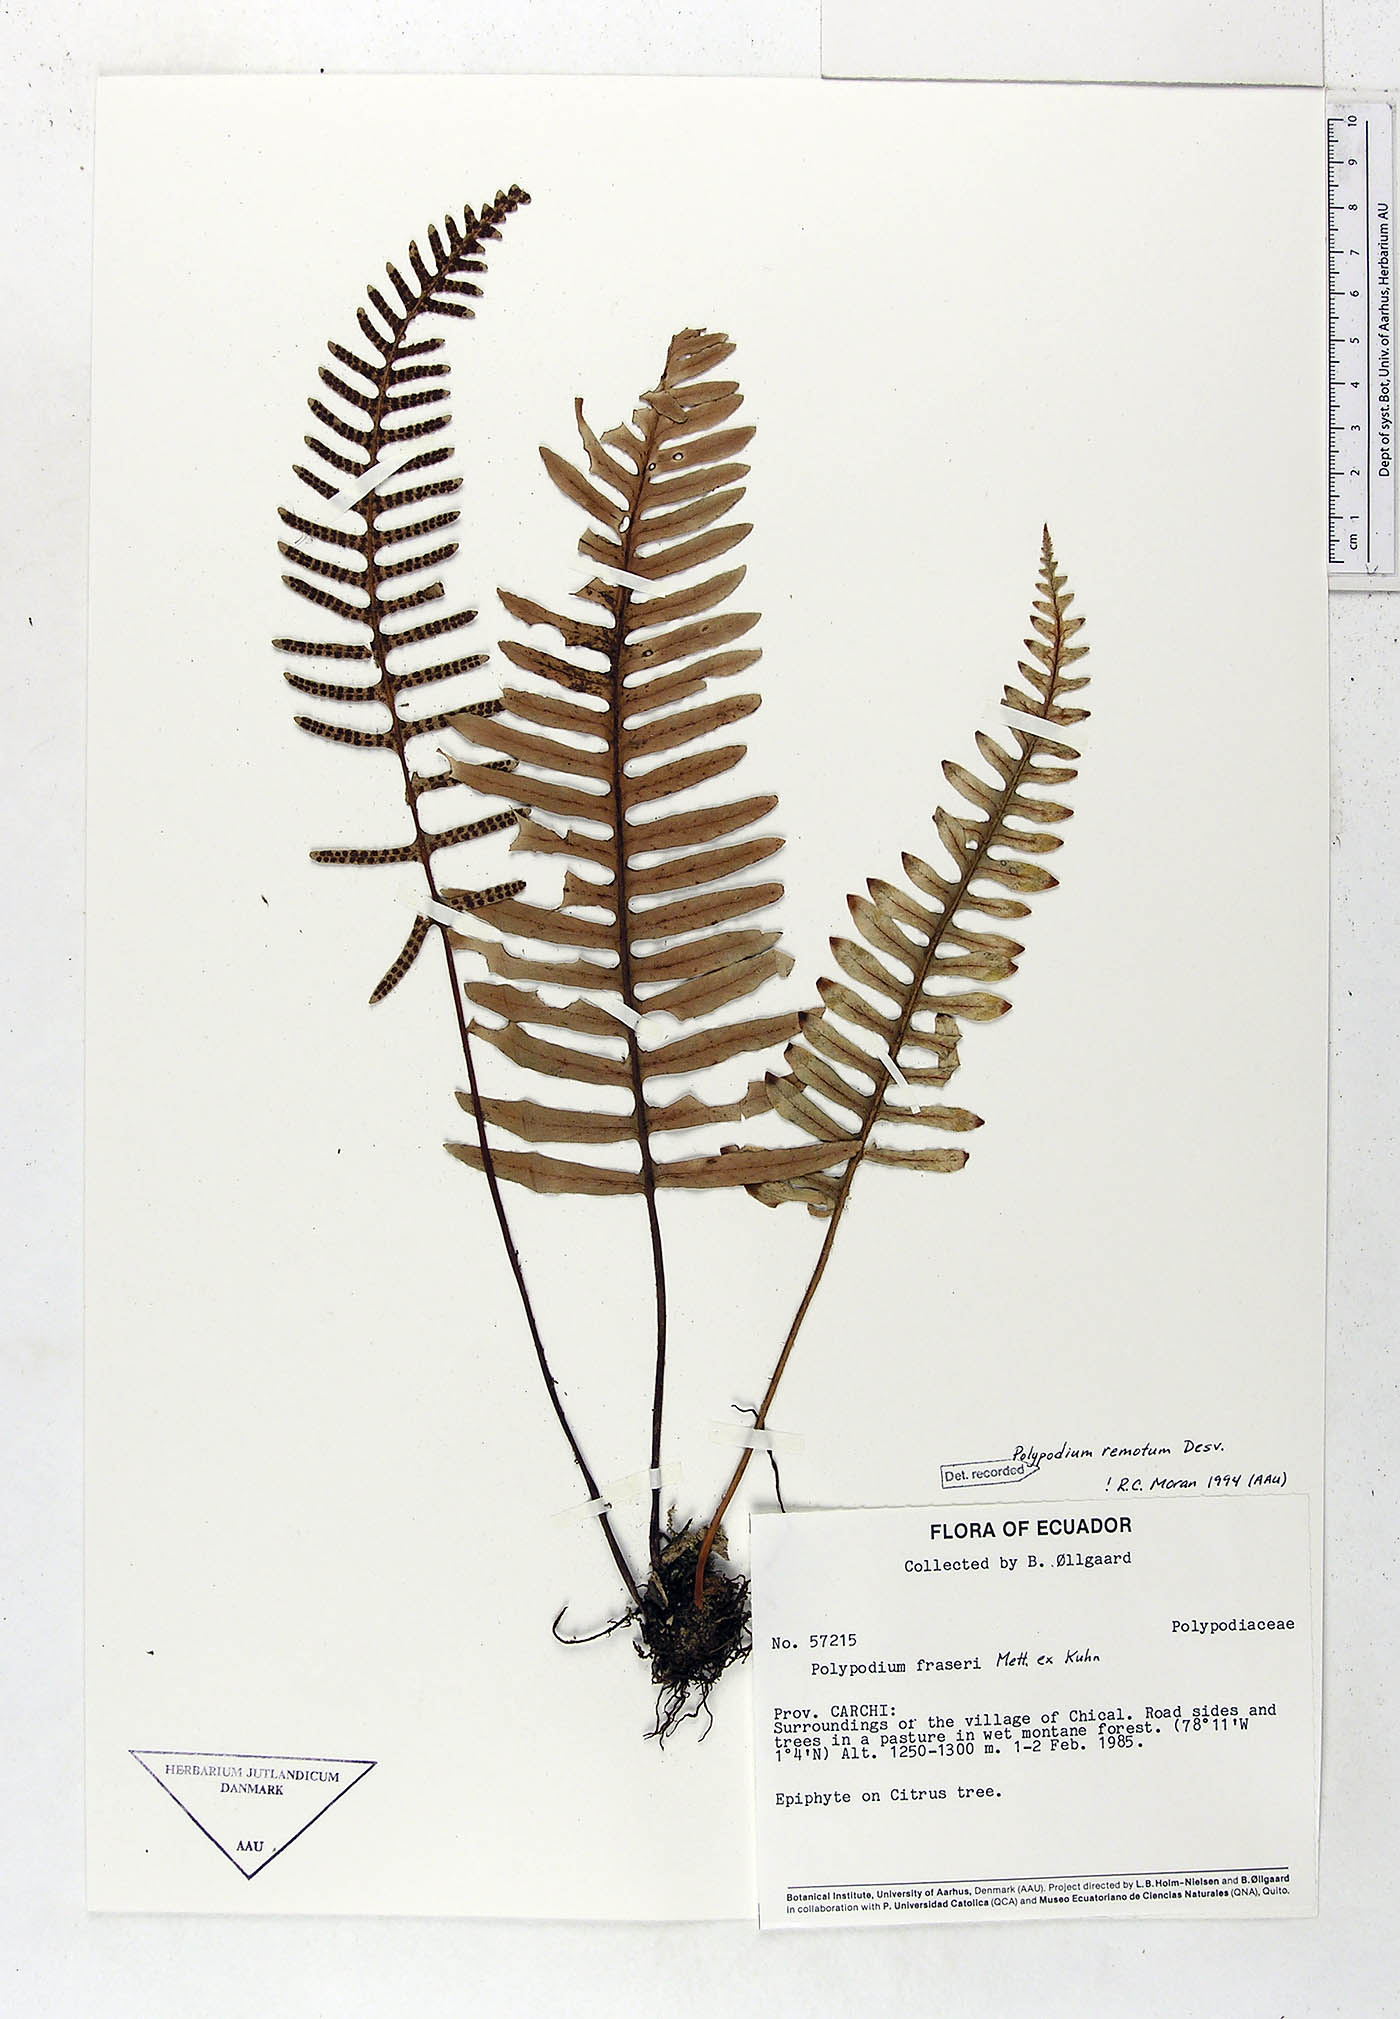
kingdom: Plantae
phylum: Tracheophyta
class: Polypodiopsida
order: Polypodiales
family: Polypodiaceae
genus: Pleopeltis
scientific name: Pleopeltis remota
